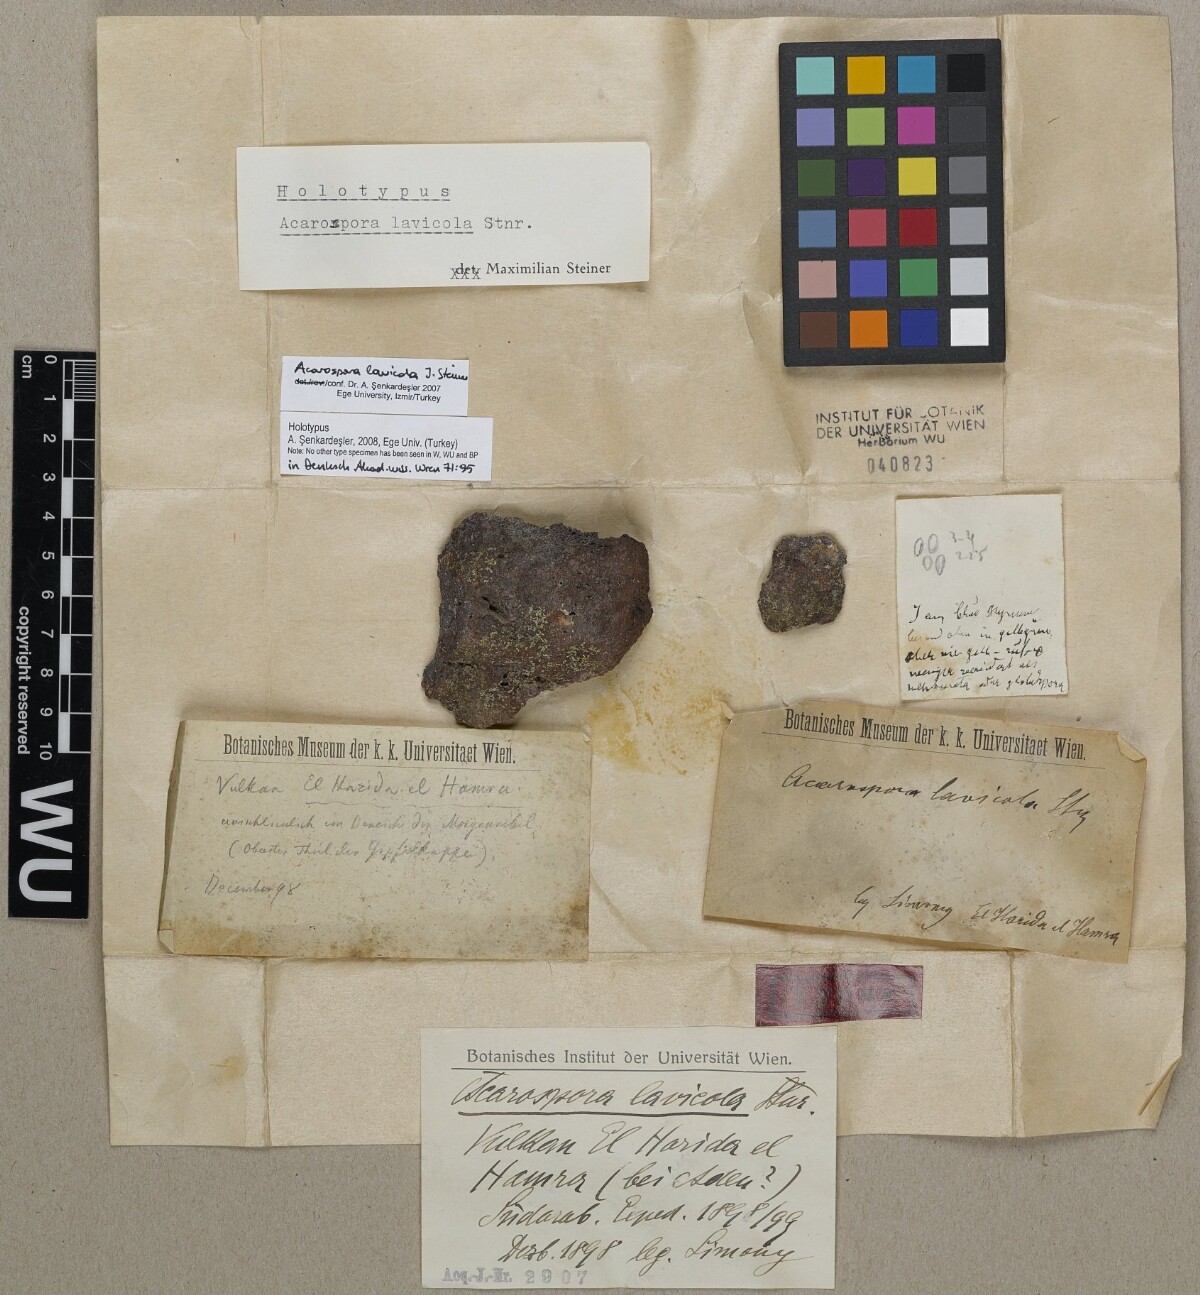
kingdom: Fungi
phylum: Ascomycota
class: Lecanoromycetes
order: Acarosporales
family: Acarosporaceae
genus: Acarospora
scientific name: Acarospora lavicola
